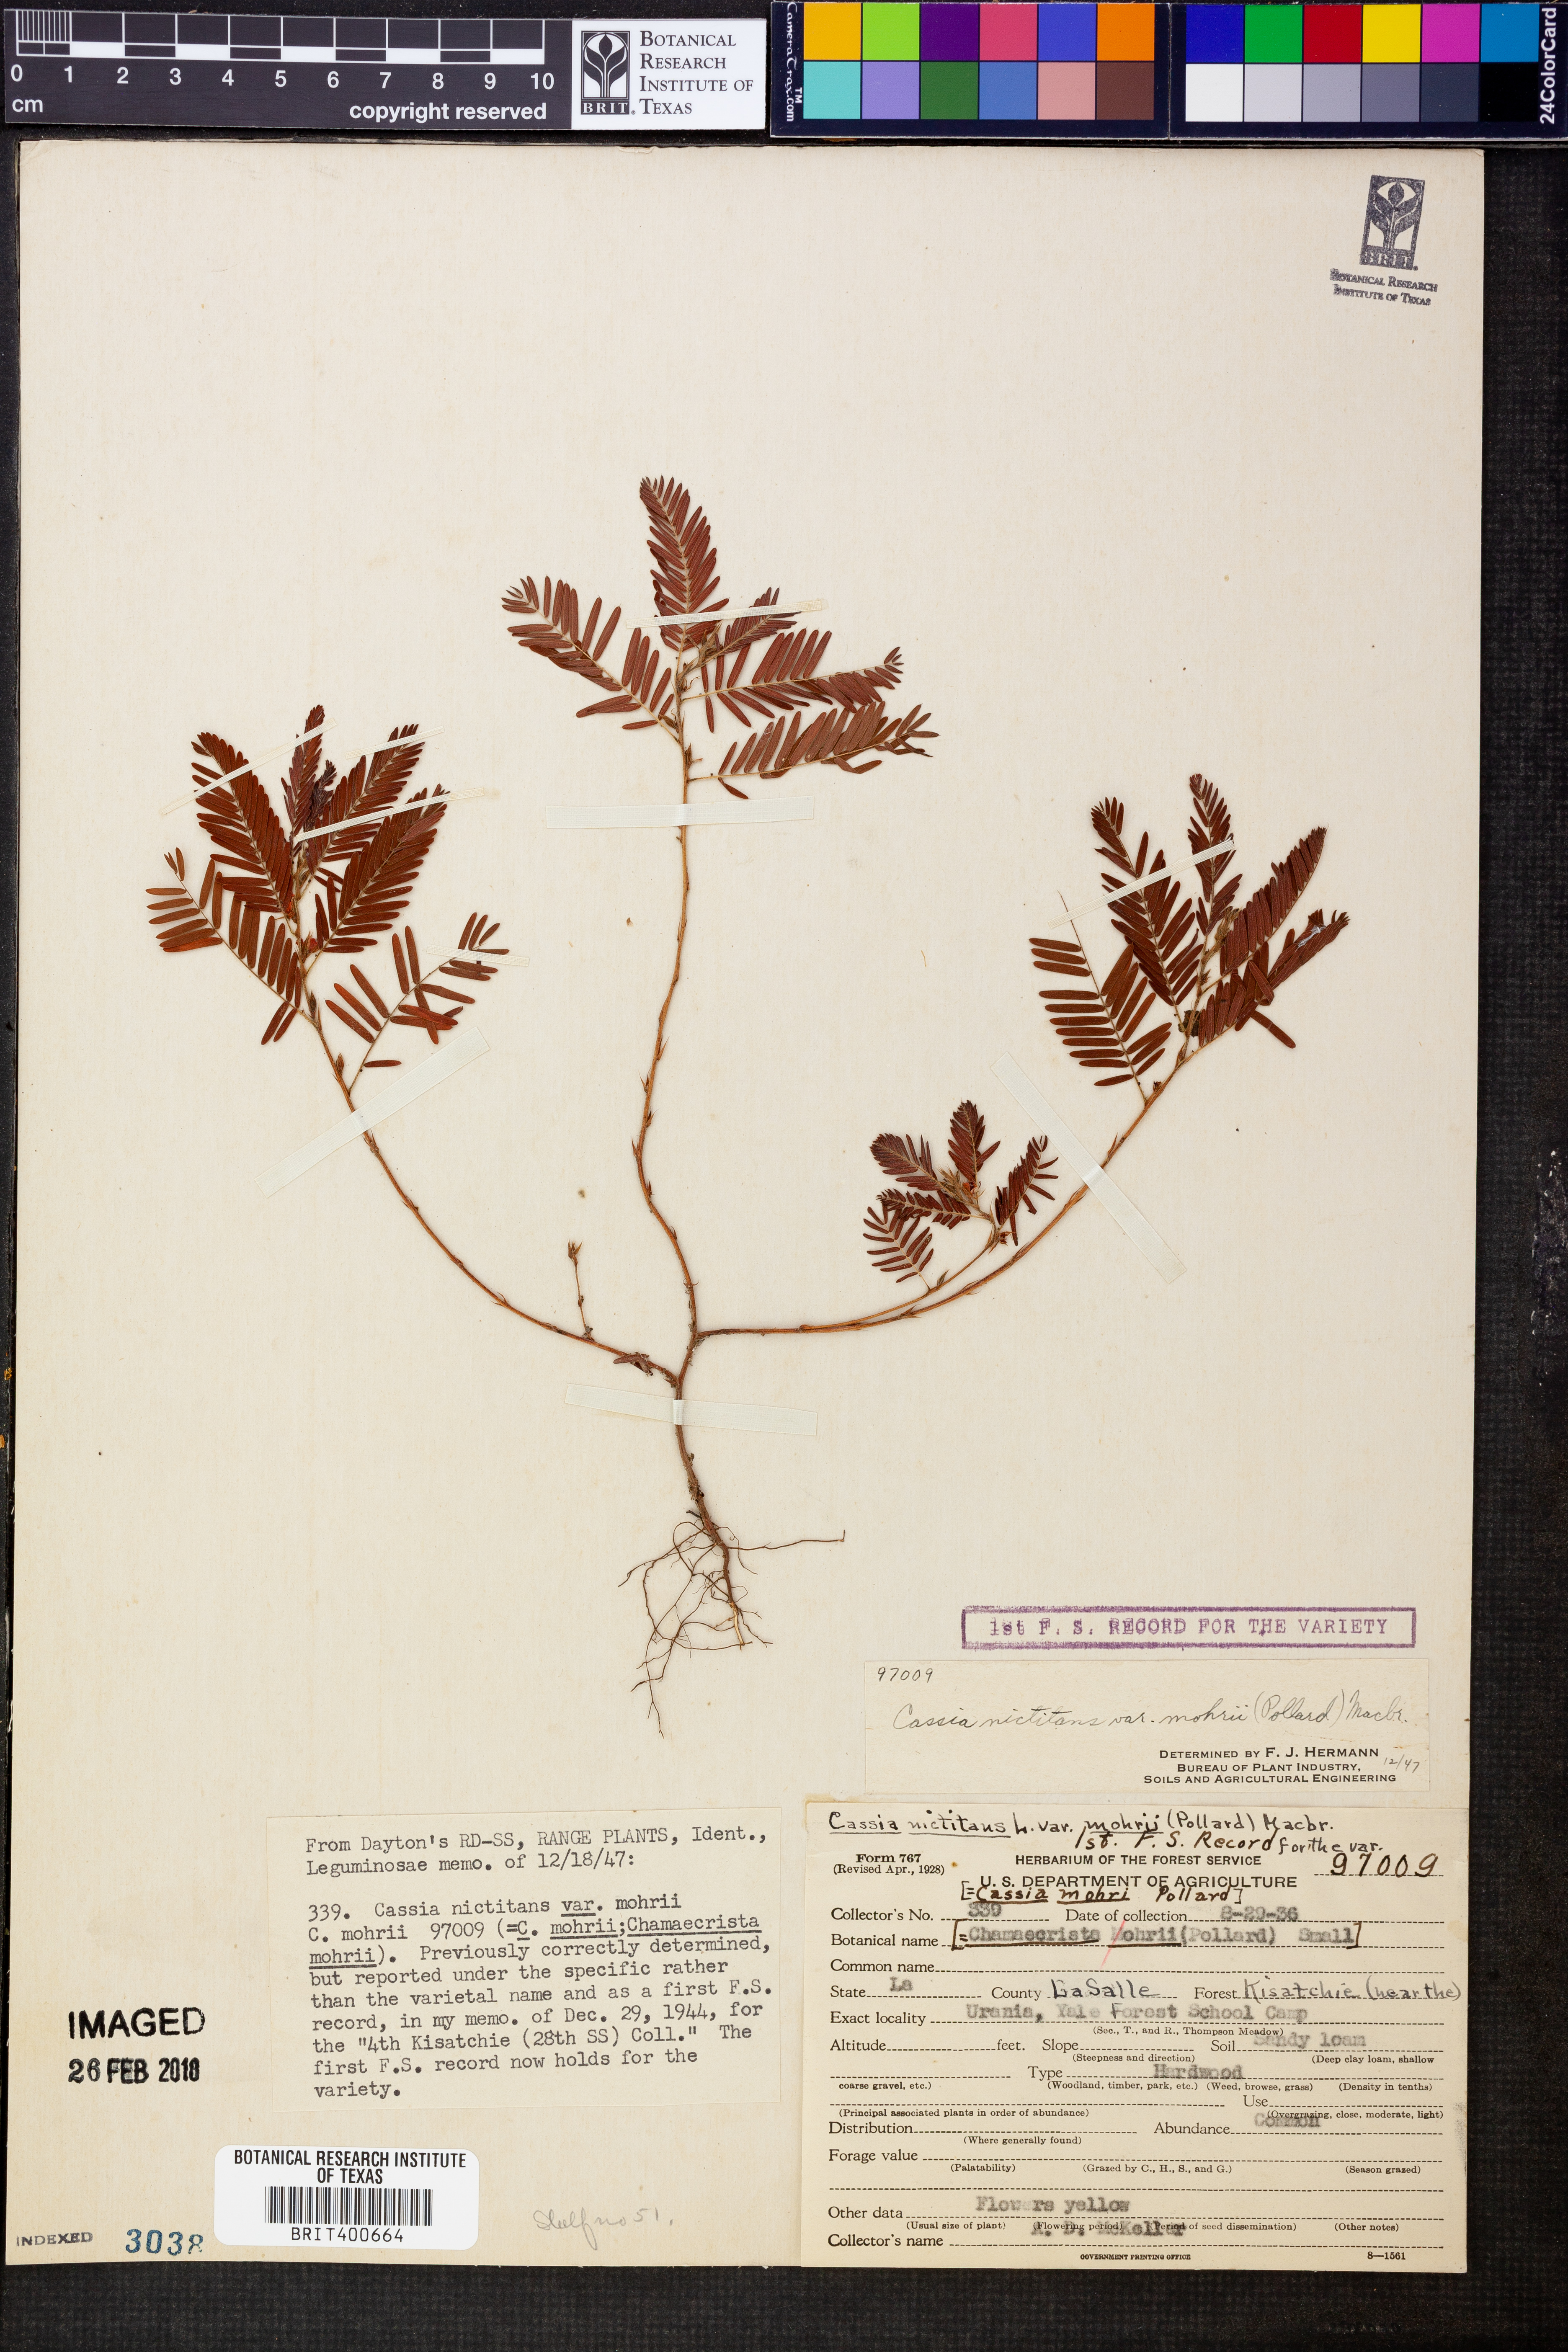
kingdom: Plantae
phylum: Tracheophyta
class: Magnoliopsida
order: Fabales
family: Fabaceae
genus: Chamaecrista
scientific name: Chamaecrista nictitans
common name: Sensitive cassia
